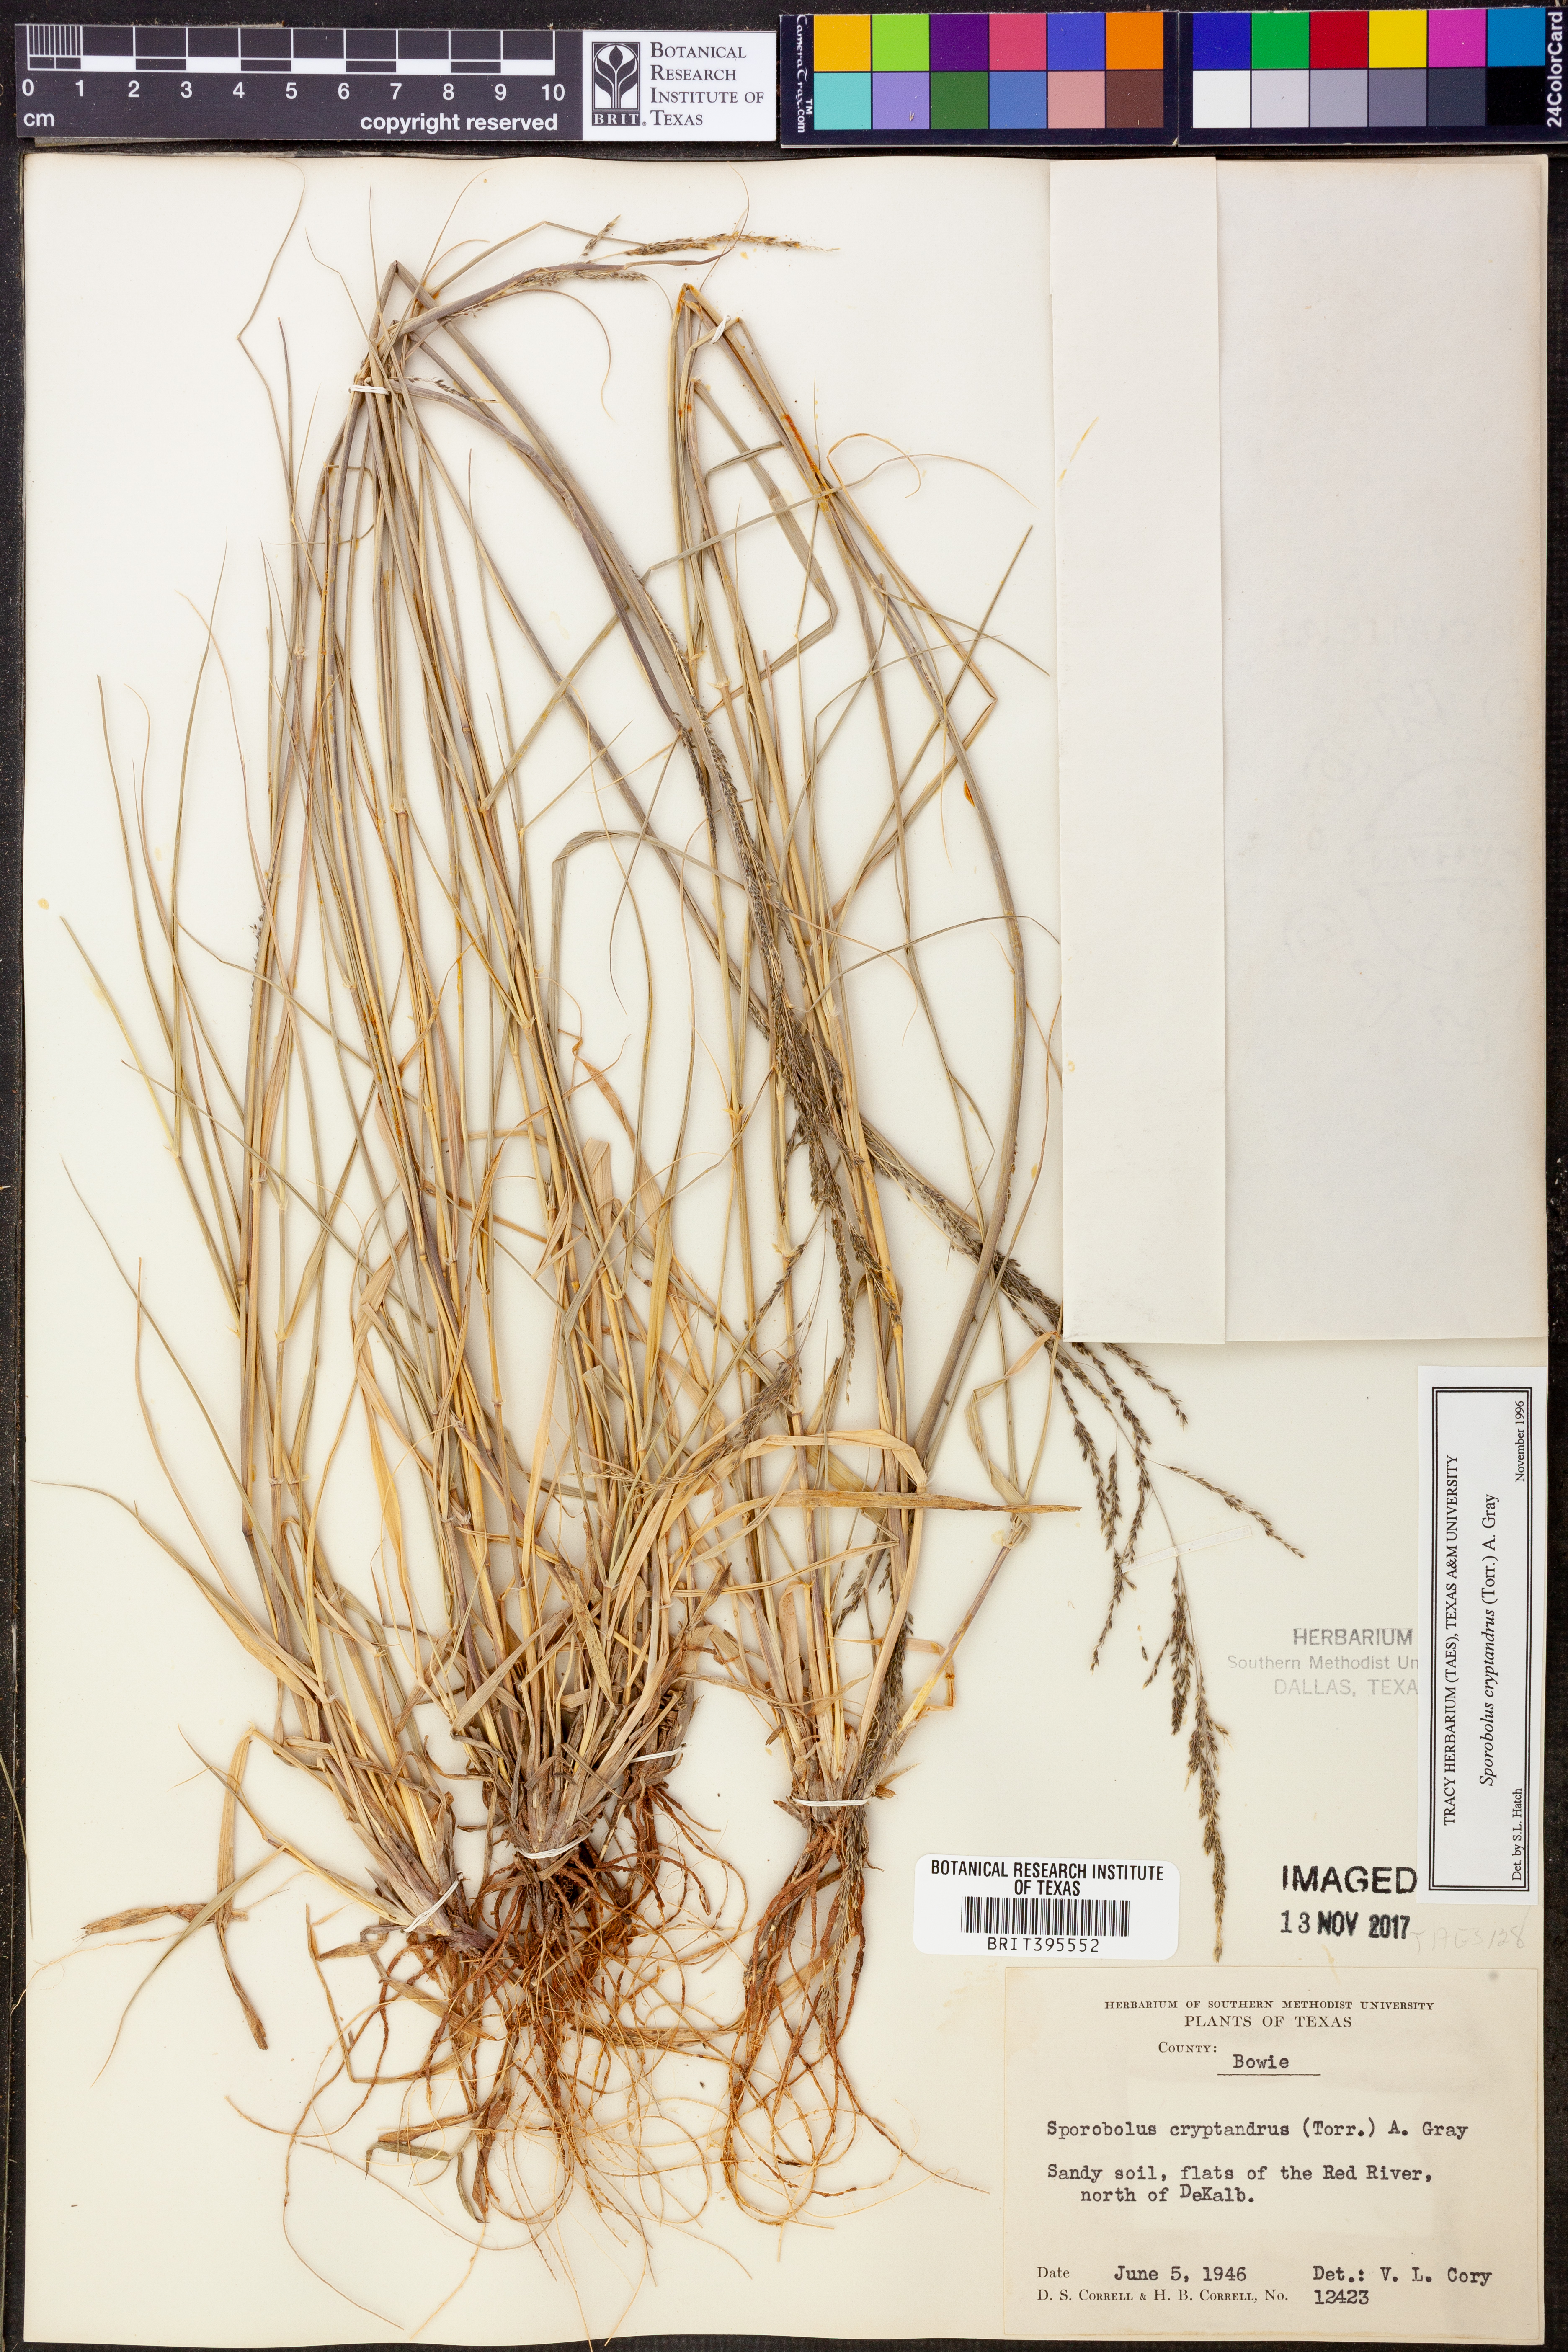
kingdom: Plantae
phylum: Tracheophyta
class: Liliopsida
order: Poales
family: Poaceae
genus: Sporobolus
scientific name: Sporobolus cryptandrus
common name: Sand dropseed
